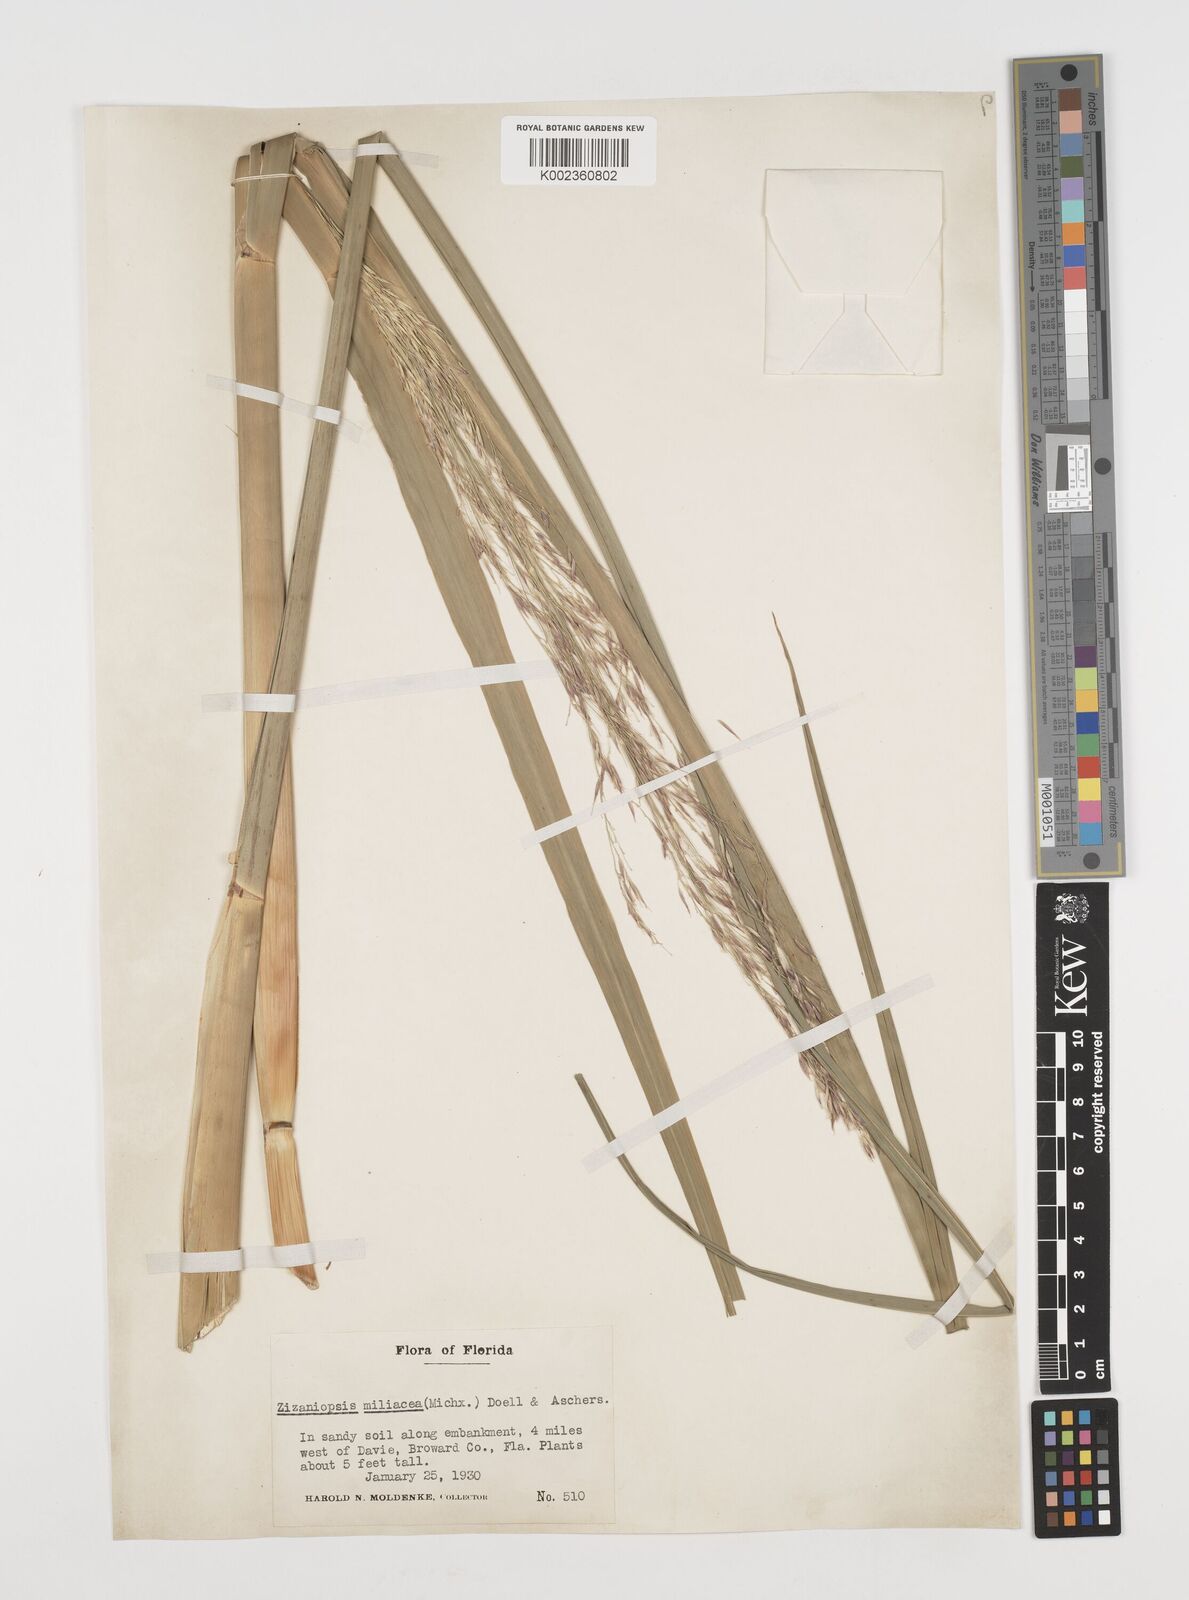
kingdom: Plantae
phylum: Tracheophyta
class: Liliopsida
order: Poales
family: Poaceae
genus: Zizaniopsis
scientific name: Zizaniopsis miliacea
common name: Giant-cutgrass
